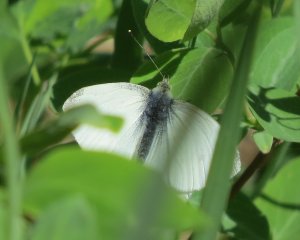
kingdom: Animalia
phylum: Arthropoda
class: Insecta
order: Lepidoptera
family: Pieridae
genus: Pieris
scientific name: Pieris oleracea
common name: Mustard White
